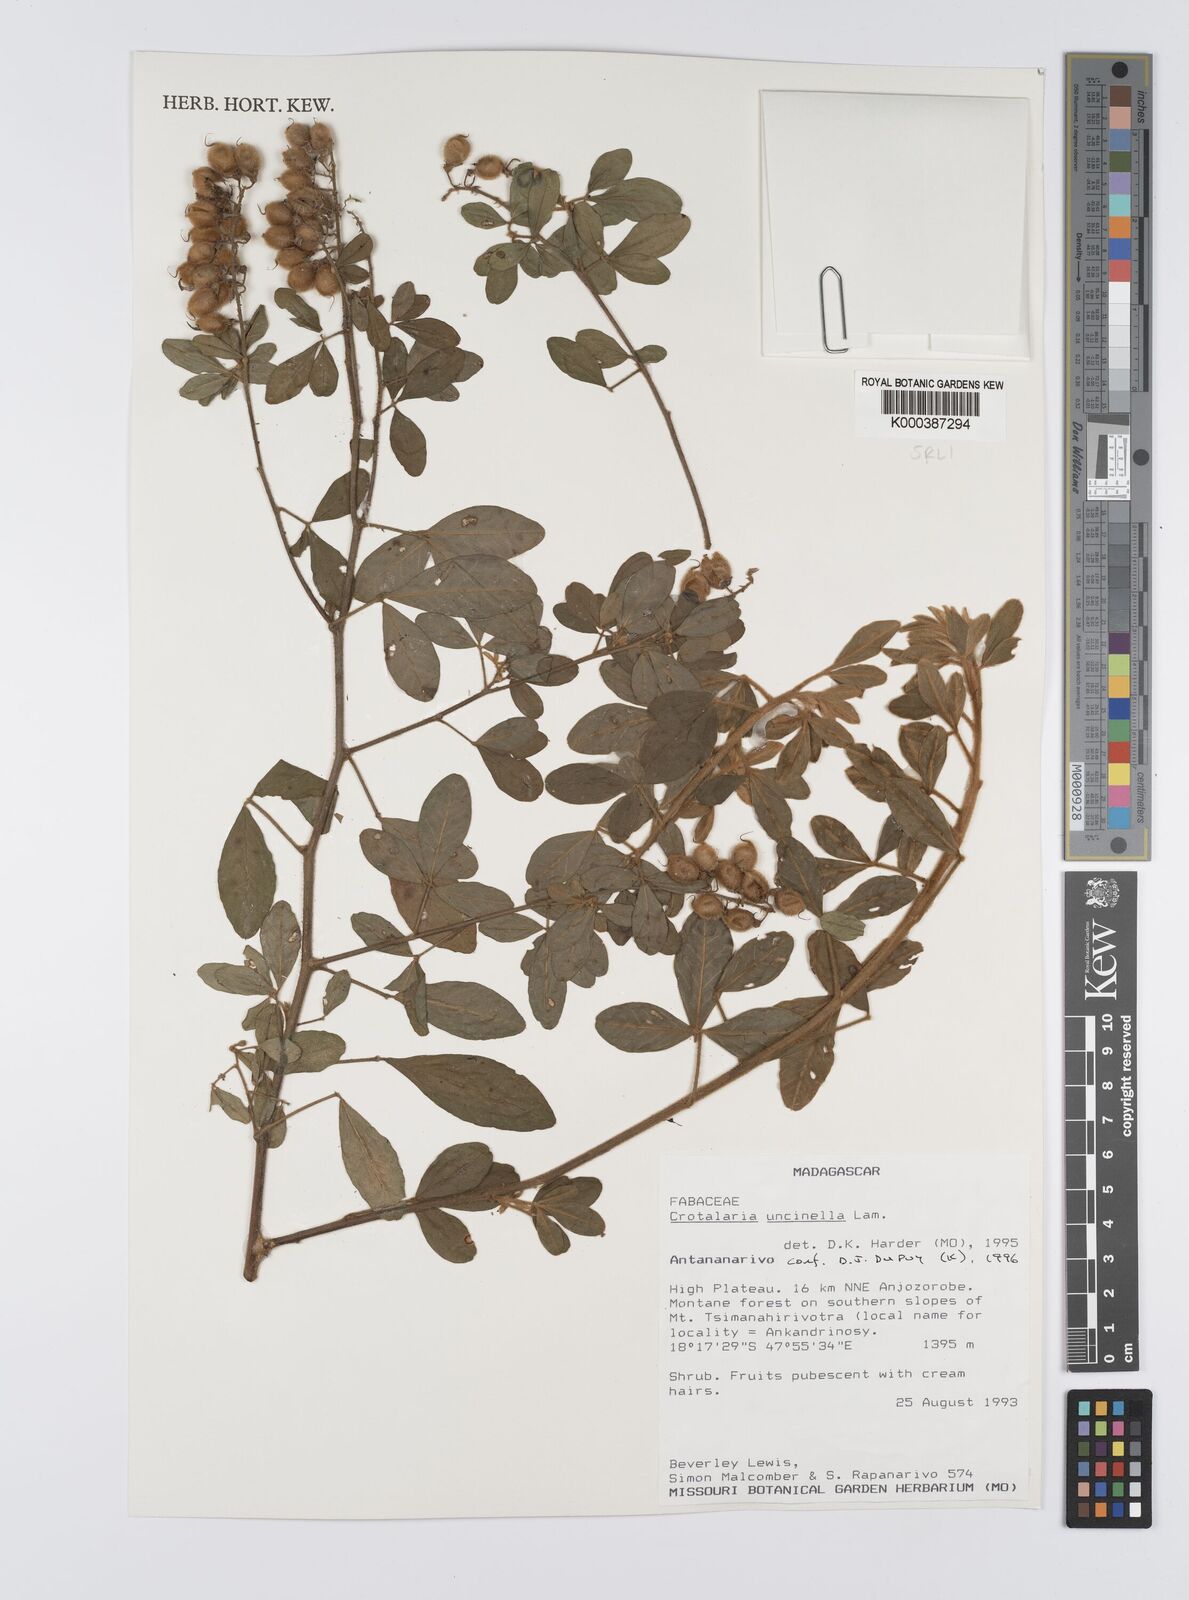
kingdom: Plantae
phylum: Tracheophyta
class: Magnoliopsida
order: Fabales
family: Fabaceae
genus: Crotalaria
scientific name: Crotalaria uncinella
